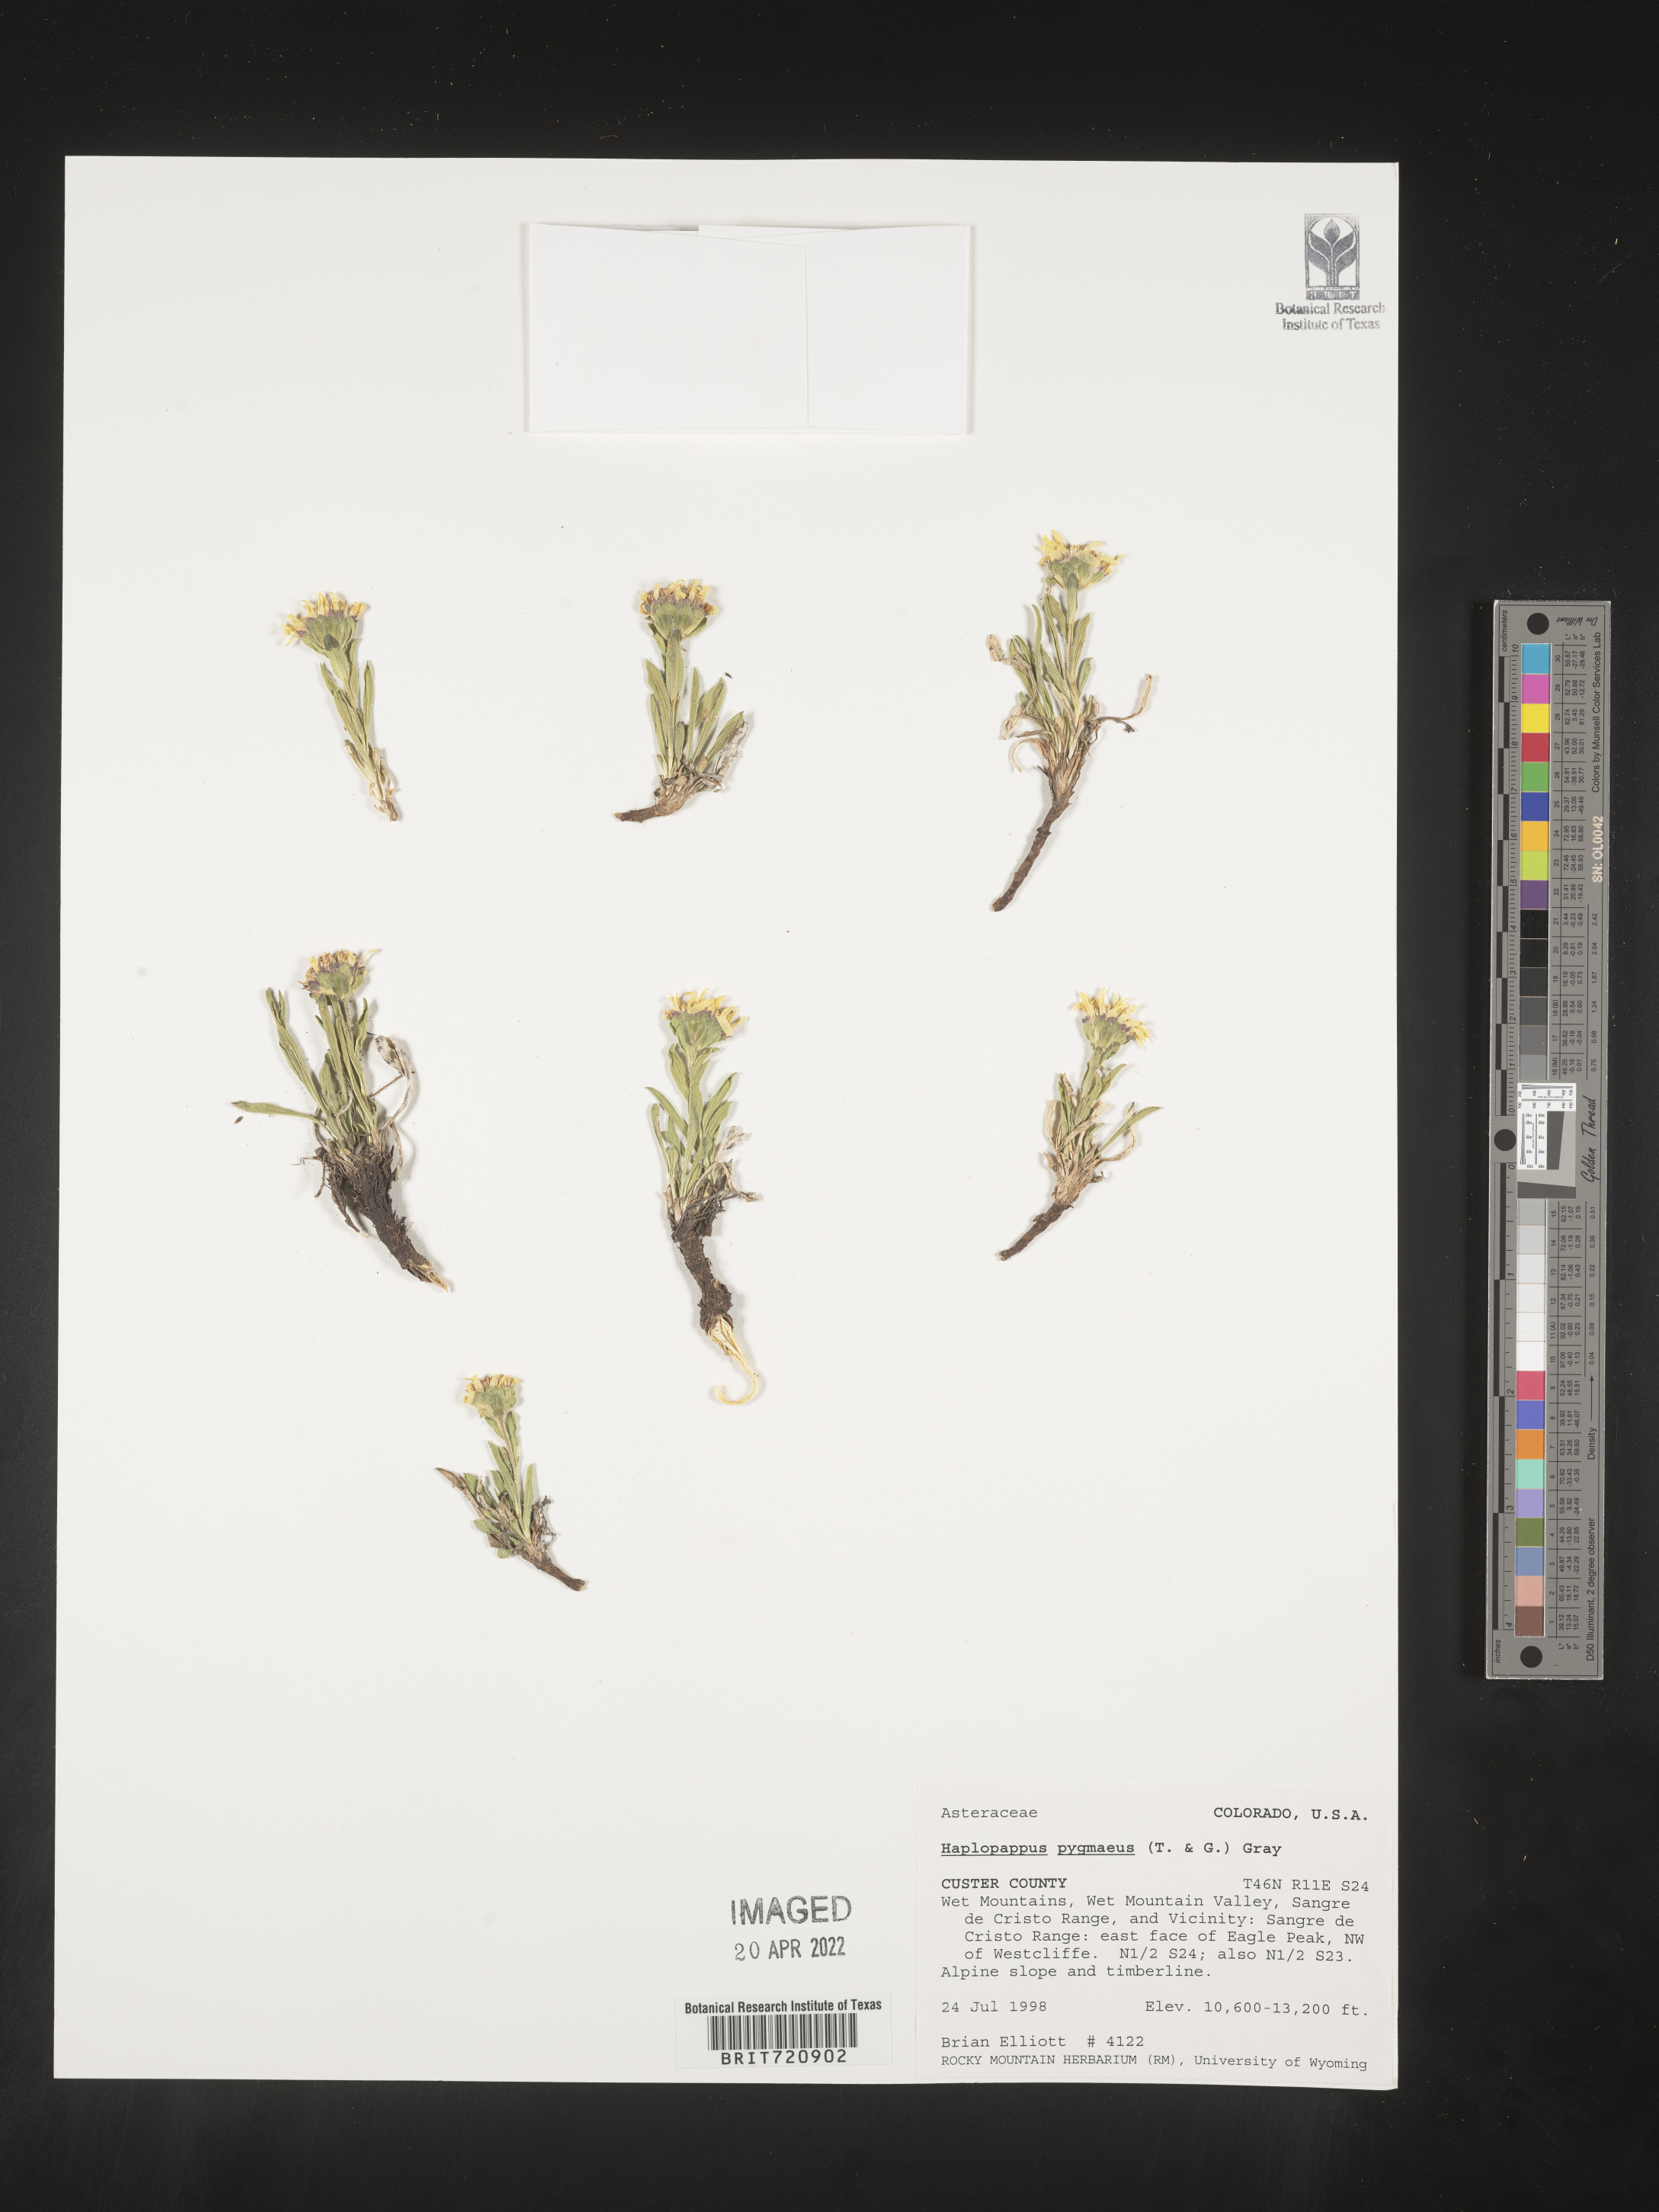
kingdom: Plantae
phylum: Tracheophyta
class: Magnoliopsida
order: Asterales
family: Asteraceae
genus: Haplopappus
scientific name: Haplopappus
